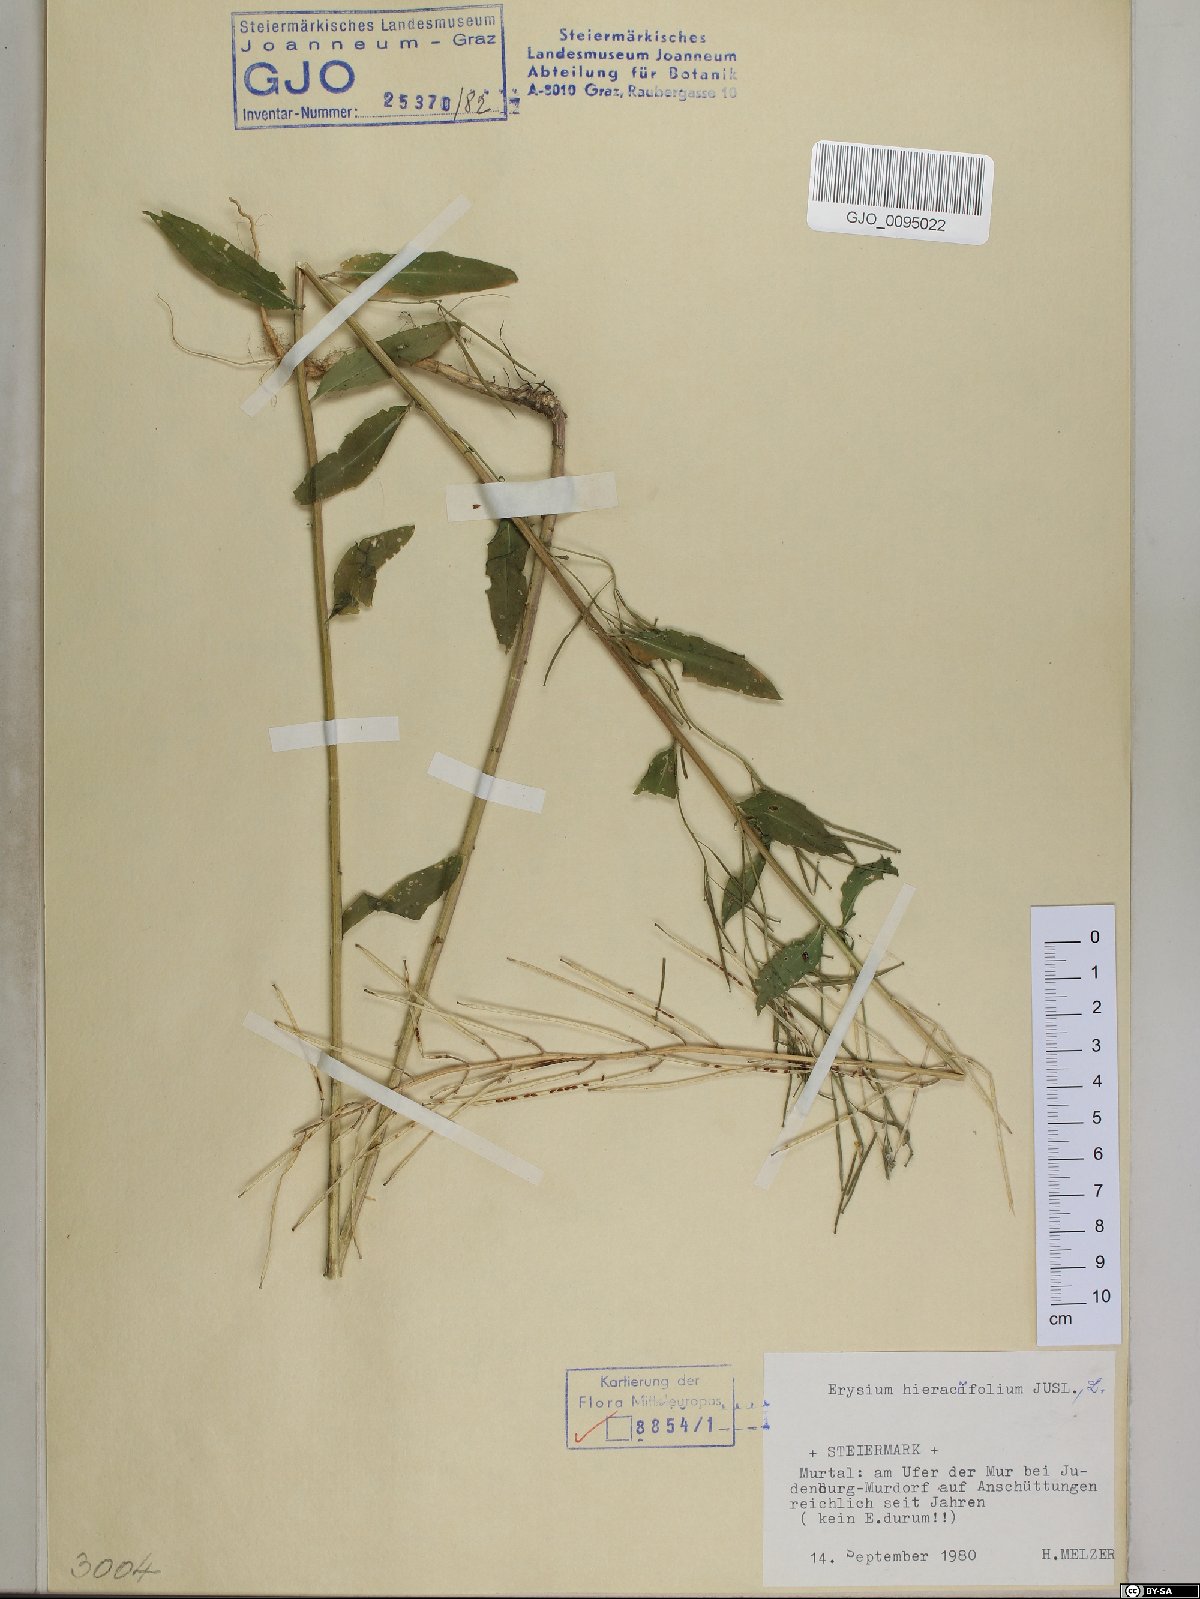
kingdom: Plantae
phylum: Tracheophyta
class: Magnoliopsida
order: Brassicales
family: Brassicaceae
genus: Erysimum
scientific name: Erysimum hieraciifolium
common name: European wallflower
